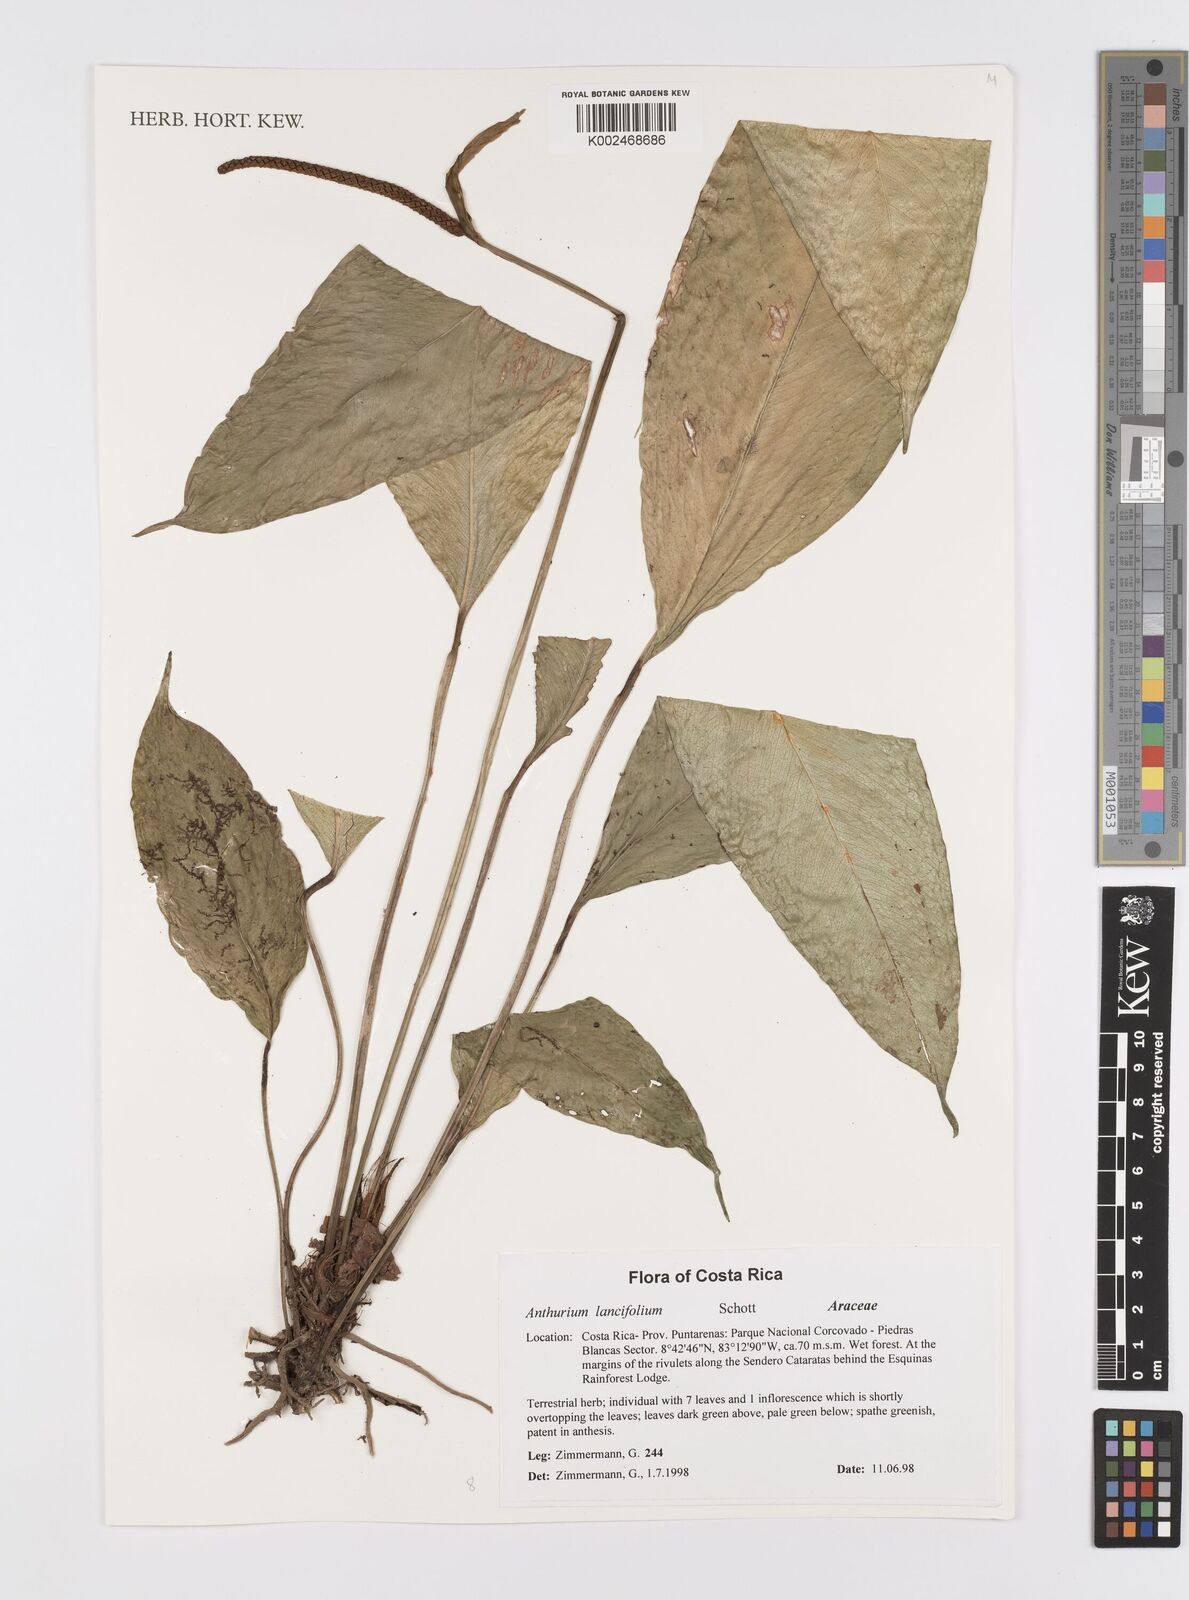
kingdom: Plantae
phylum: Tracheophyta
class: Liliopsida
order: Alismatales
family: Araceae
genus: Anthurium
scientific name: Anthurium lancifolium
